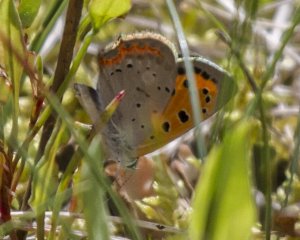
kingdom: Animalia
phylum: Arthropoda
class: Insecta
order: Lepidoptera
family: Lycaenidae
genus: Lycaena
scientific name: Lycaena phlaeas
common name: American Copper
